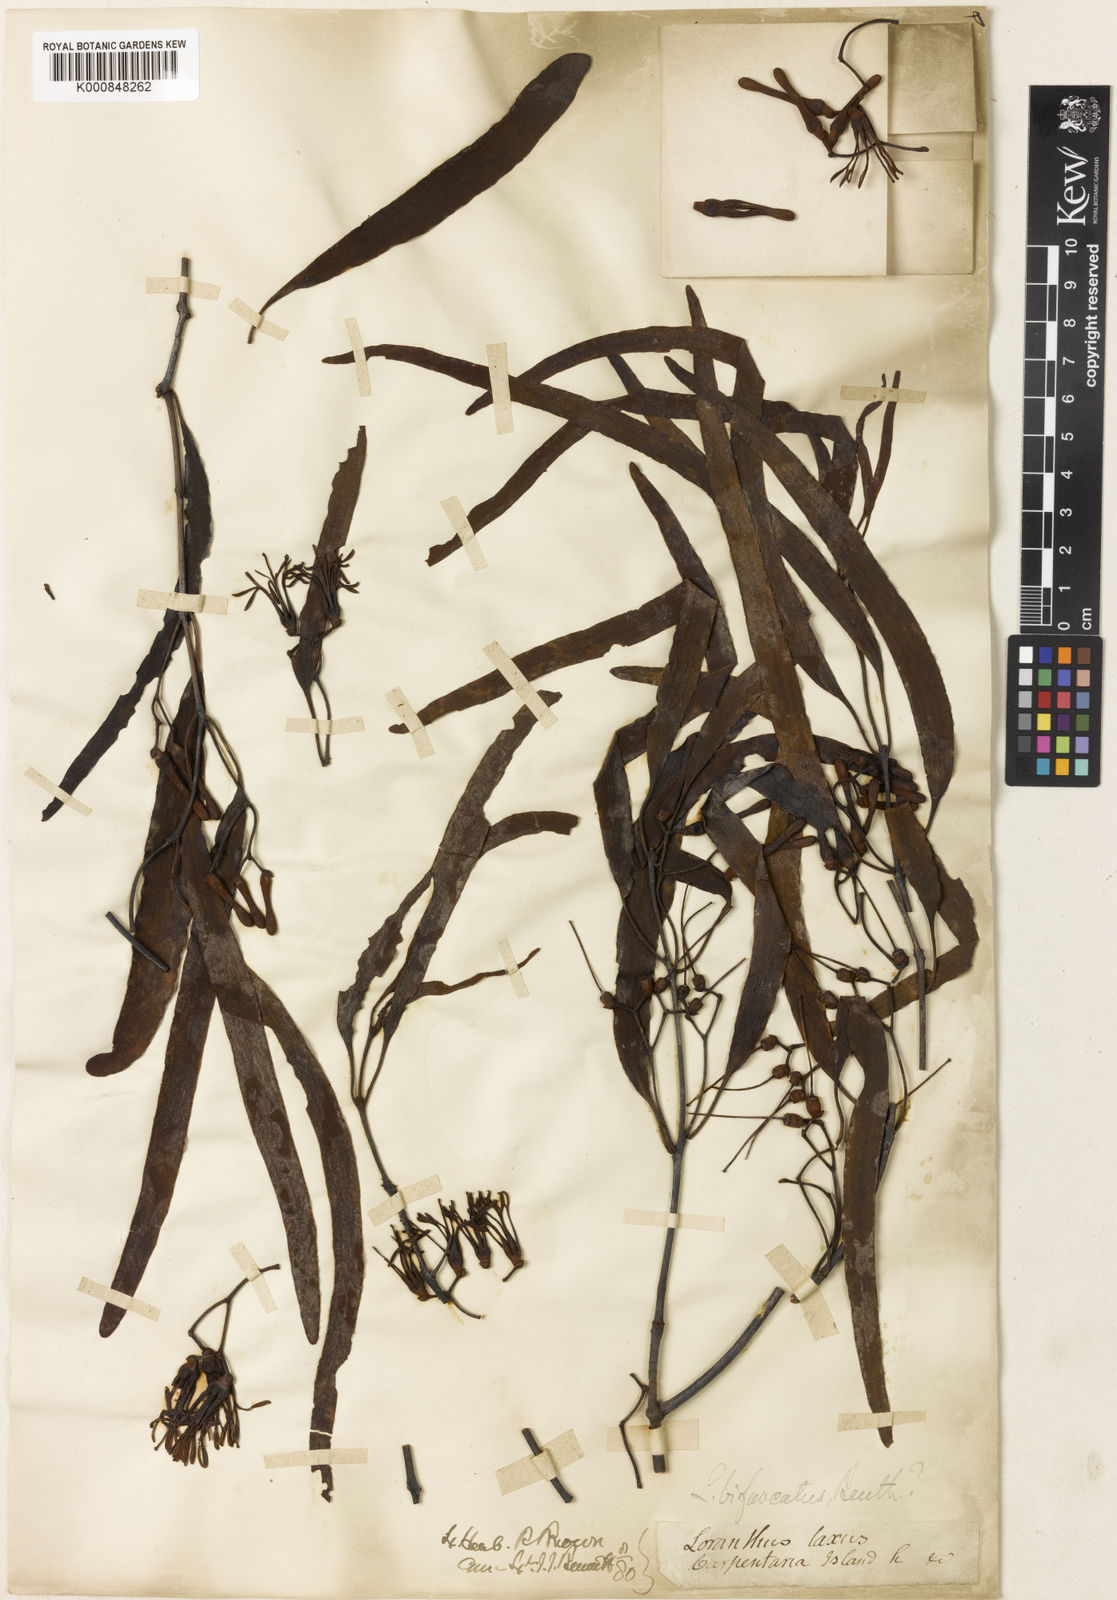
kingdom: Plantae
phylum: Tracheophyta
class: Magnoliopsida
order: Santalales
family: Loranthaceae
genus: Amyema
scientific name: Amyema bifurcata
